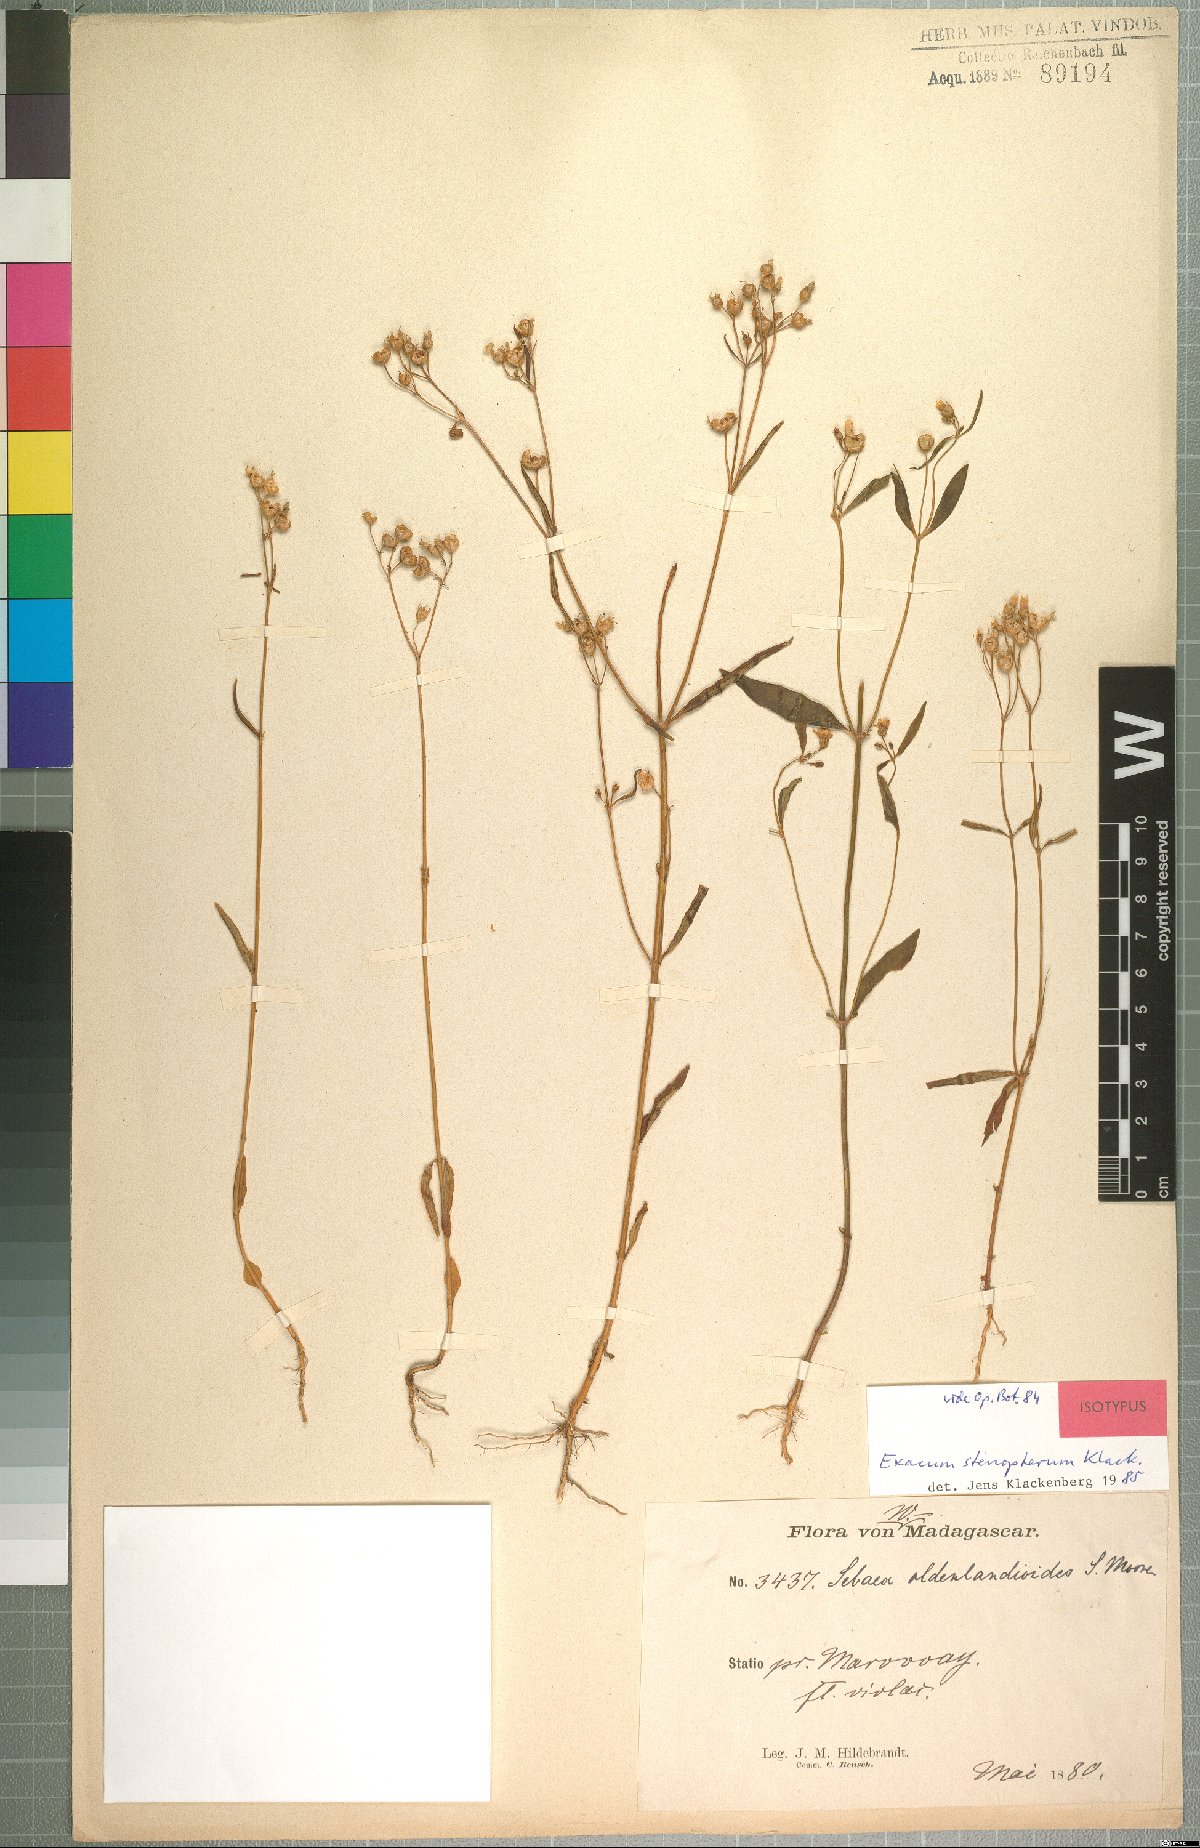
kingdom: Plantae
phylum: Tracheophyta
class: Magnoliopsida
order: Gentianales
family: Gentianaceae
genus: Exacum
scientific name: Exacum stenopterum
